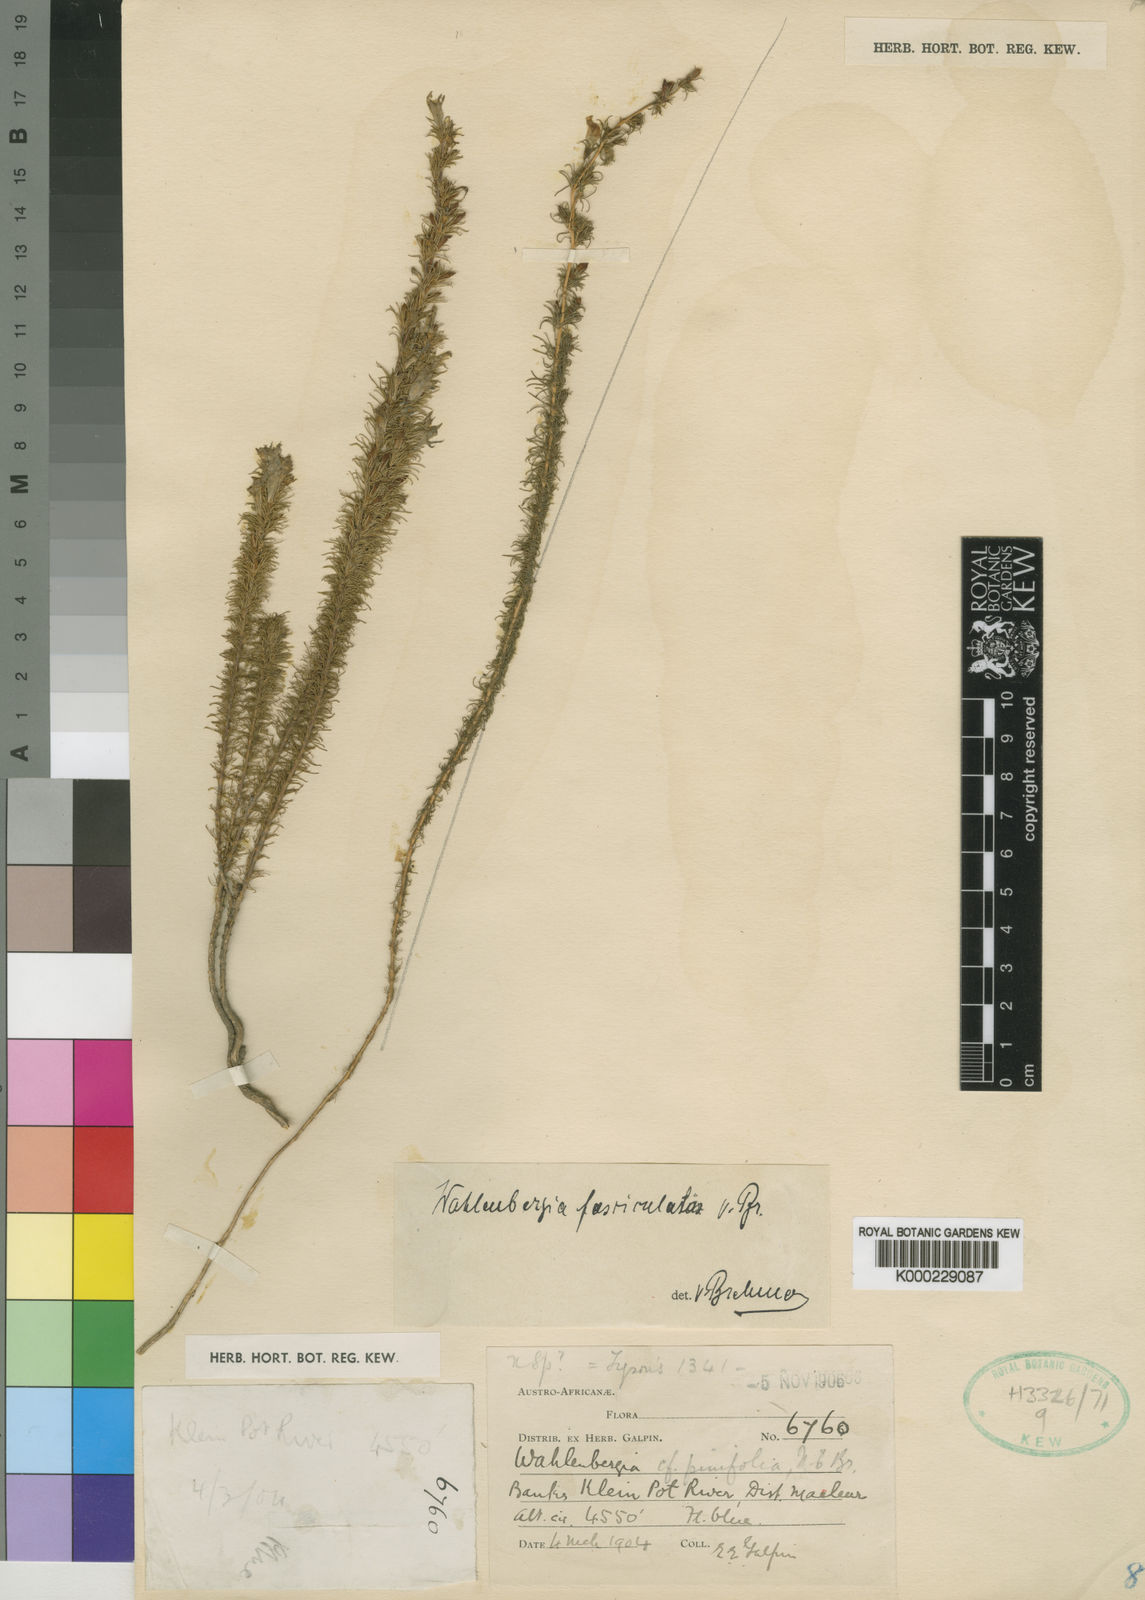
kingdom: Plantae
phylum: Tracheophyta
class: Magnoliopsida
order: Asterales
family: Campanulaceae
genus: Wahlenbergia
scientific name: Wahlenbergia fasciculata
